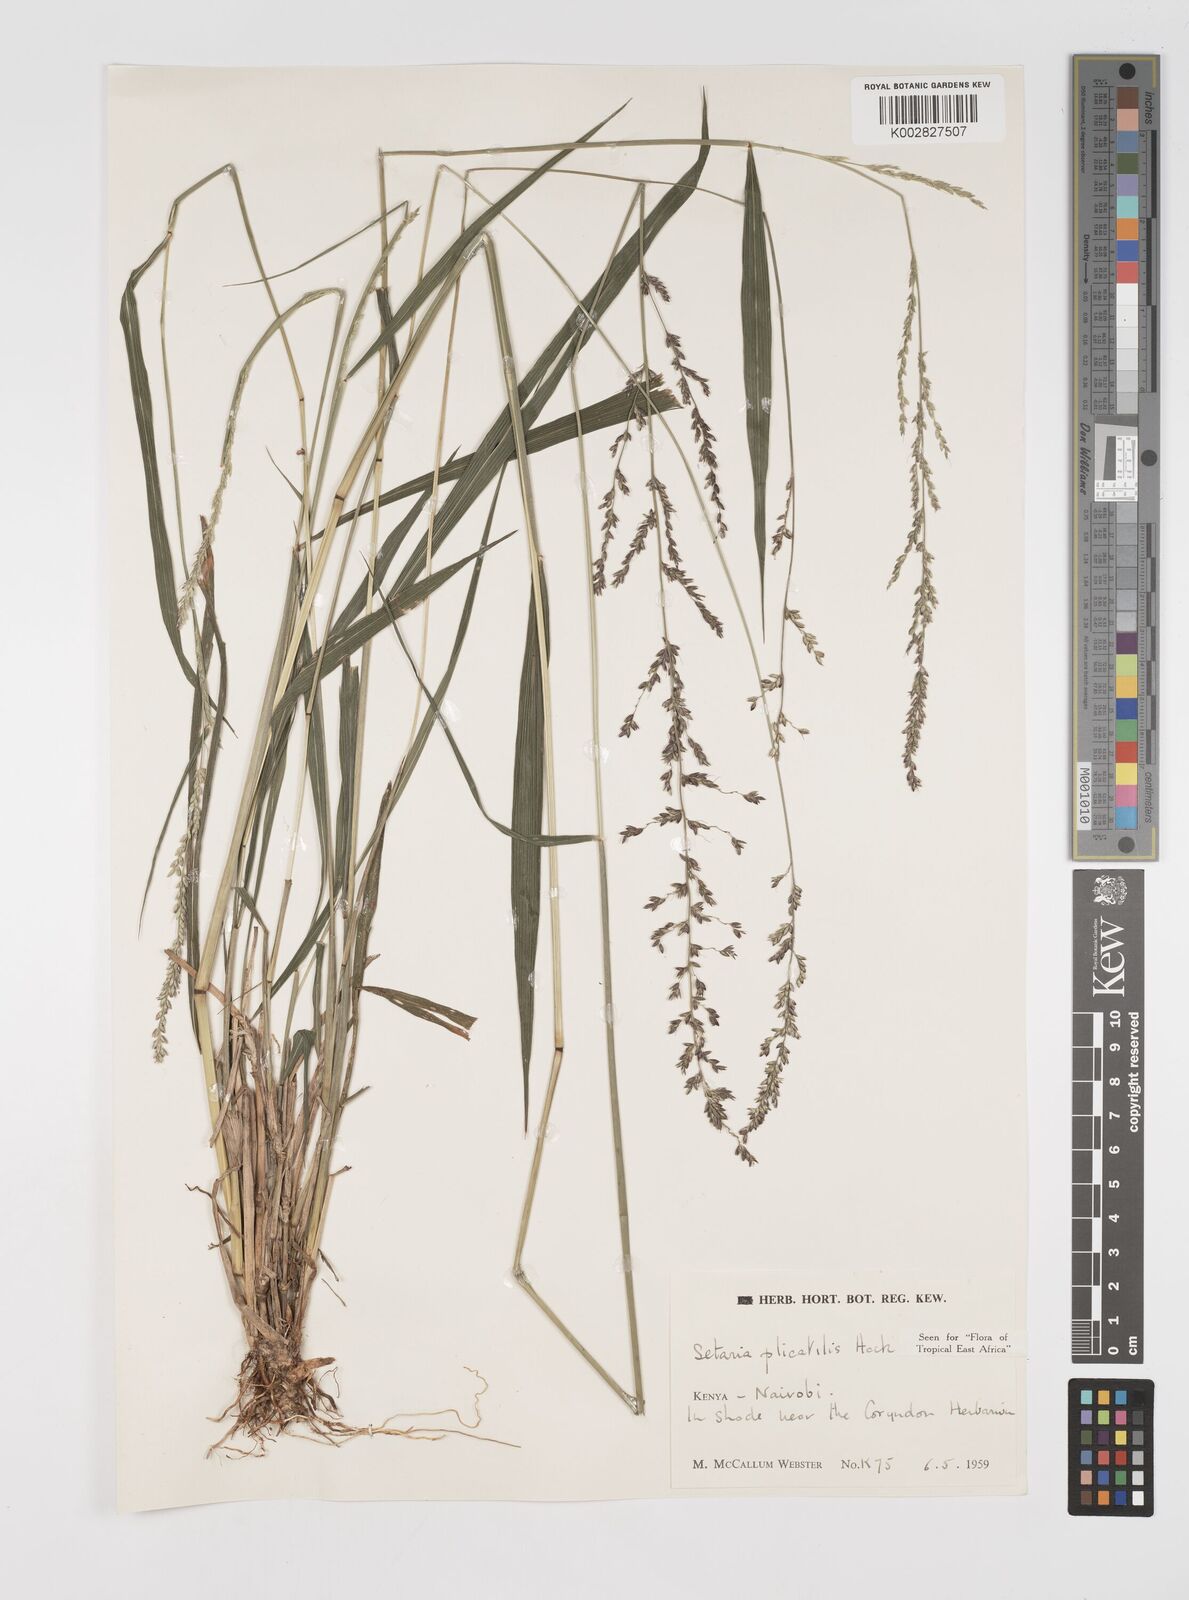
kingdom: Plantae
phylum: Tracheophyta
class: Liliopsida
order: Poales
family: Poaceae
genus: Setaria
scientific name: Setaria megaphylla
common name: Bigleaf bristlegrass
